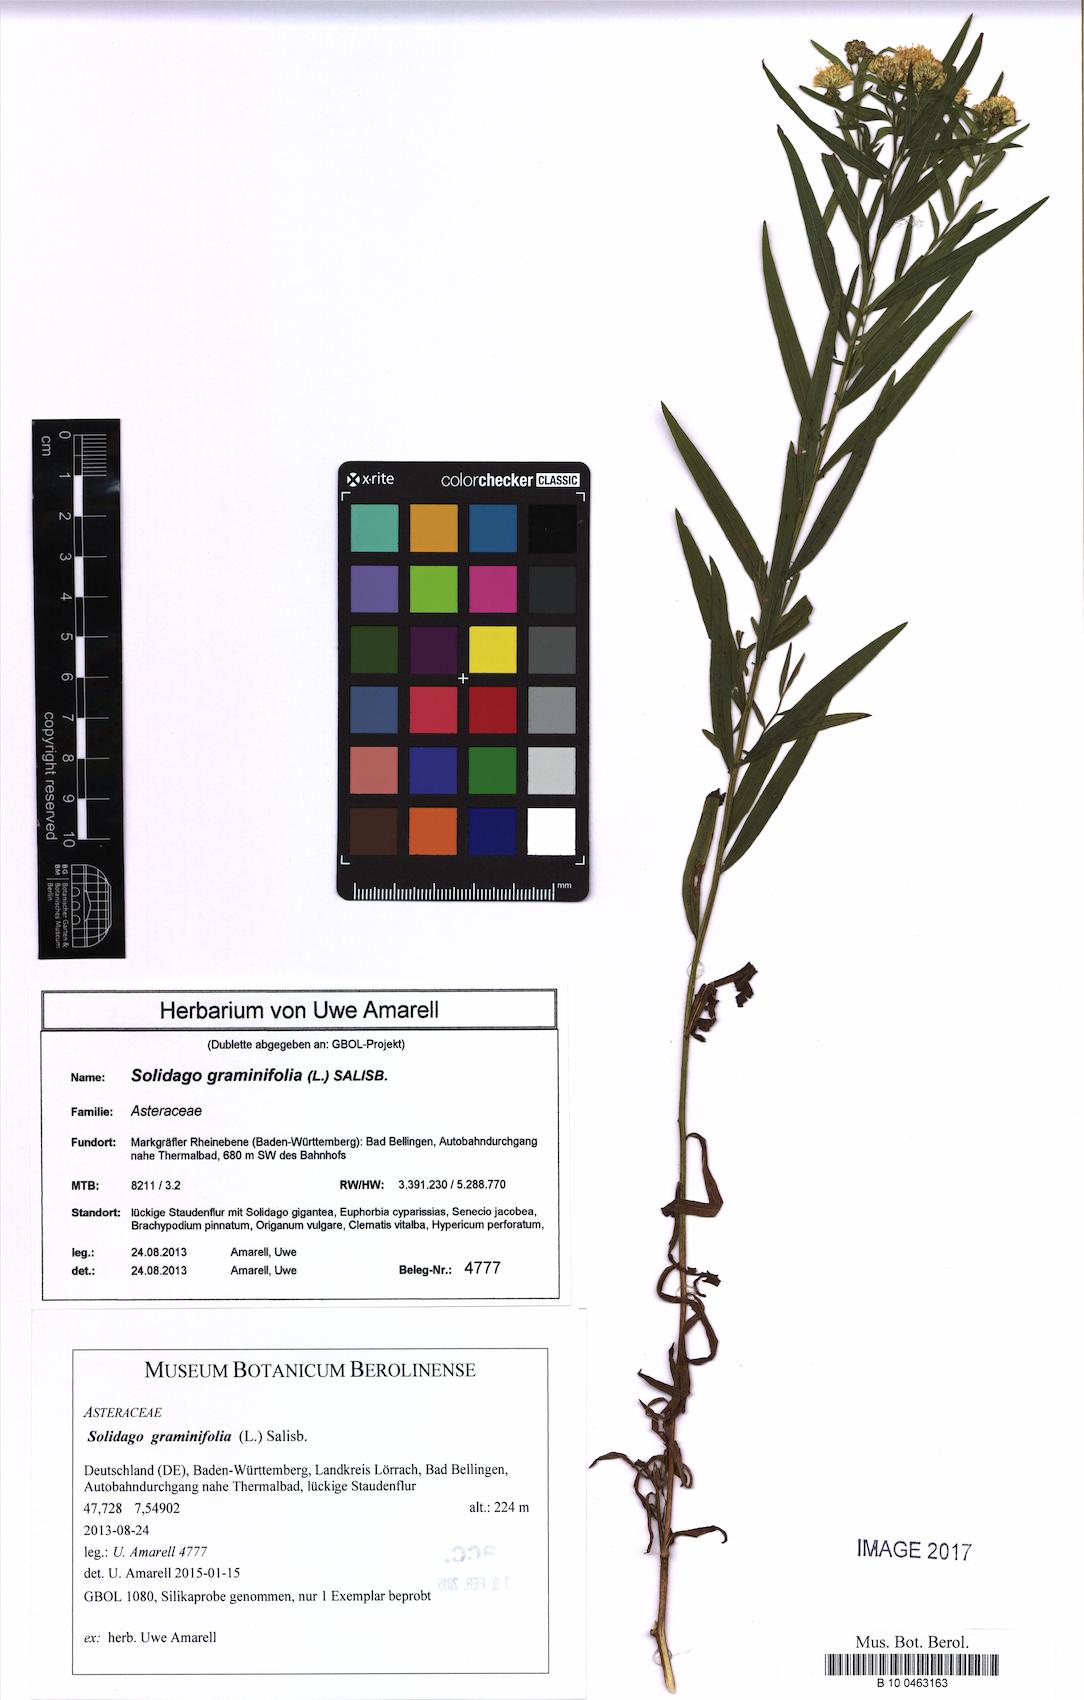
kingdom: Plantae
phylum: Tracheophyta
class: Magnoliopsida
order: Asterales
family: Asteraceae
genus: Euthamia
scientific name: Euthamia graminifolia
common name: Common goldentop
